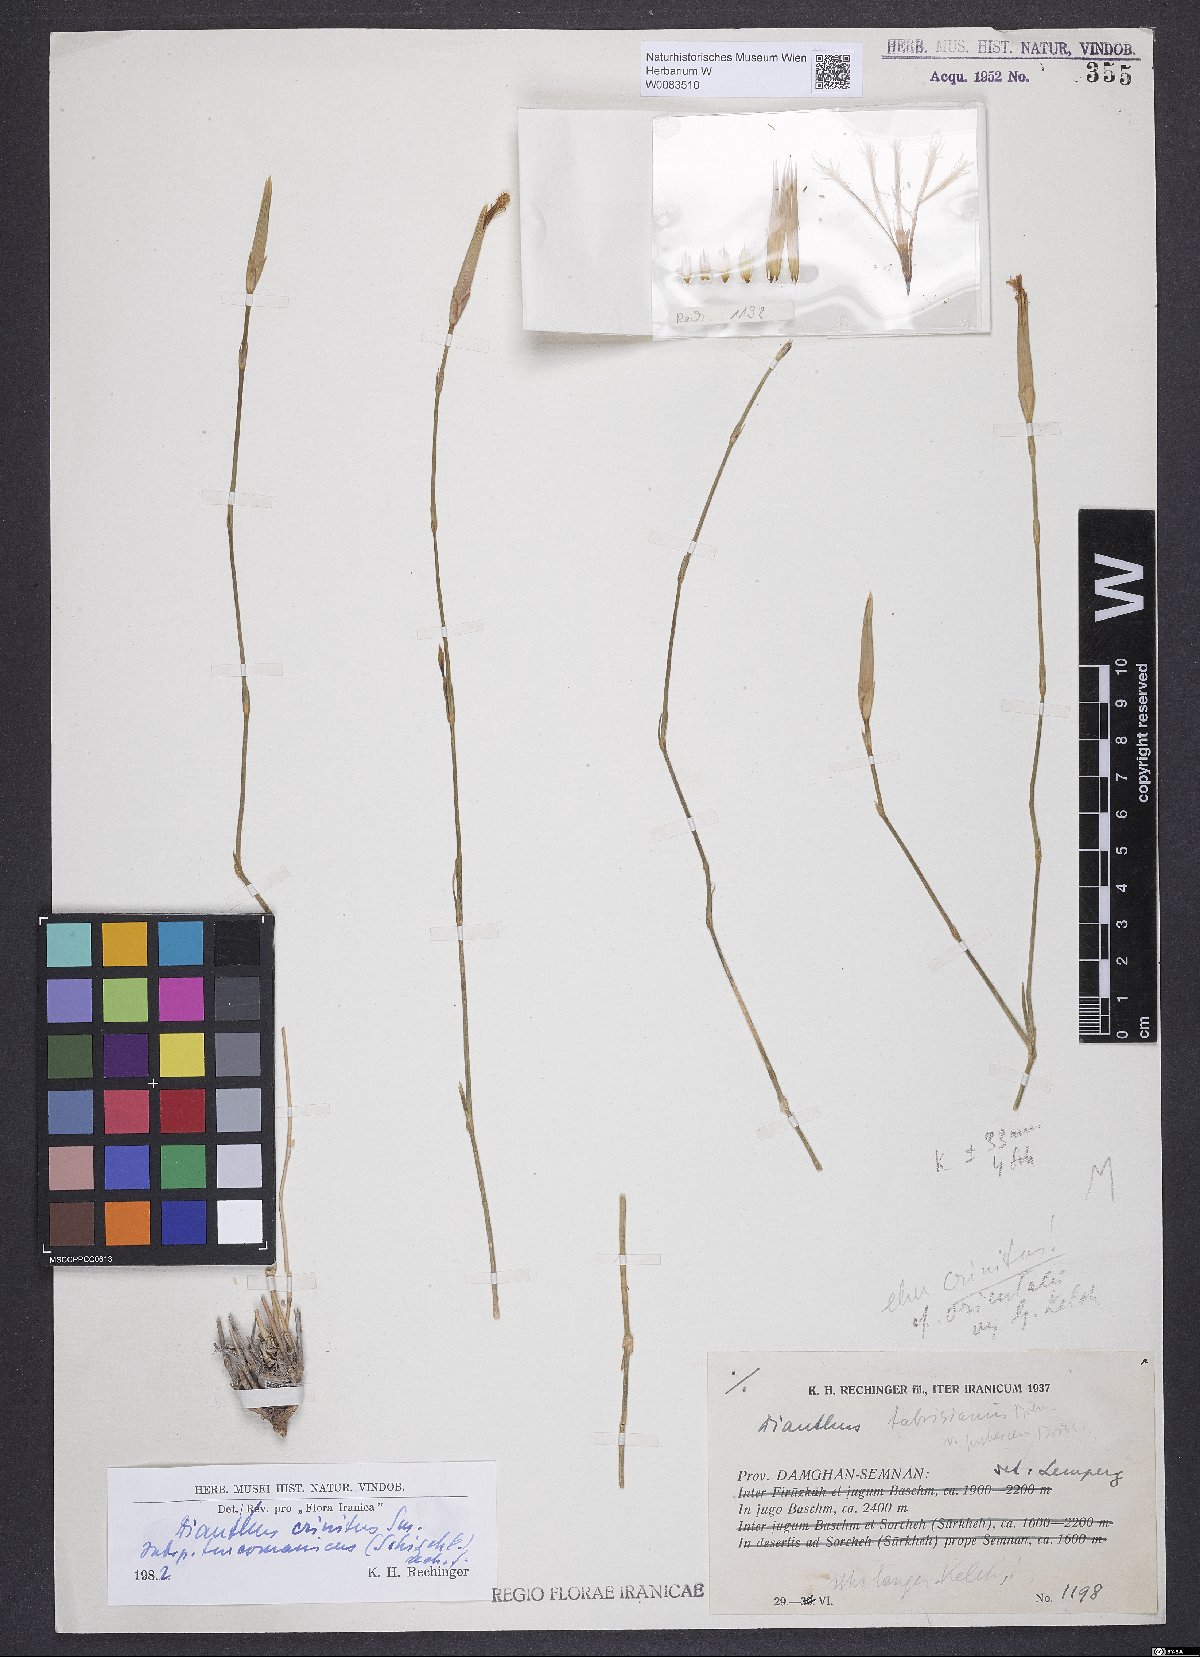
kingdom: Plantae
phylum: Tracheophyta
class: Magnoliopsida
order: Caryophyllales
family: Caryophyllaceae
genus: Dianthus
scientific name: Dianthus turkestanicus
